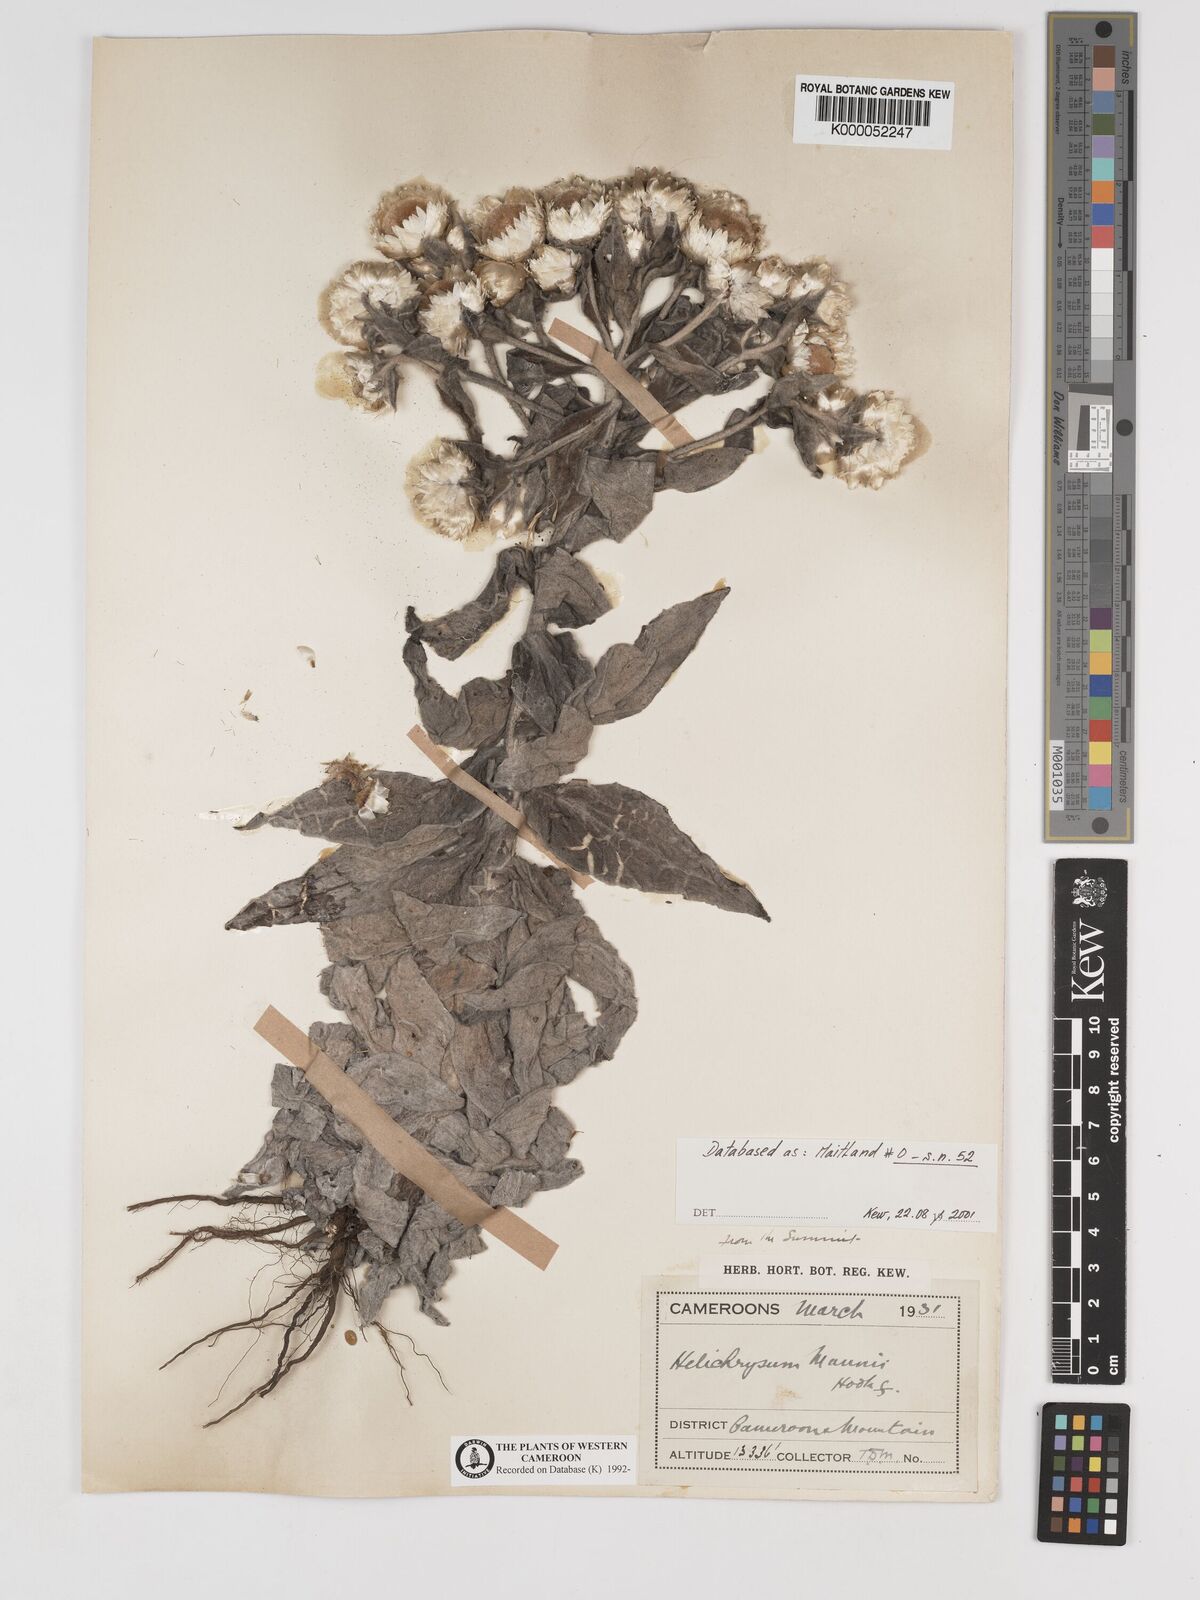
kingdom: Plantae
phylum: Tracheophyta
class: Magnoliopsida
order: Asterales
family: Asteraceae
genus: Helichrysum
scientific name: Helichrysum mannii
